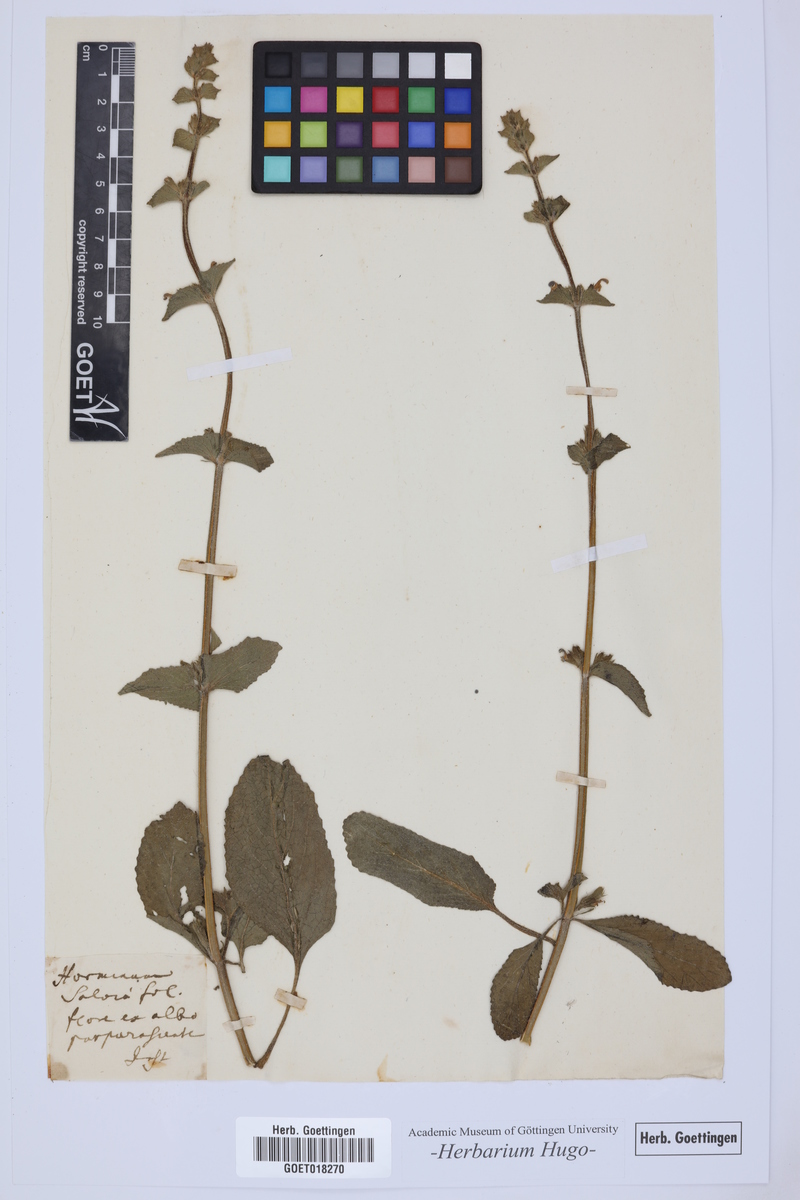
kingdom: Plantae
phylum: Tracheophyta
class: Magnoliopsida
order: Lamiales
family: Lamiaceae
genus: Horminum
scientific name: Horminum
